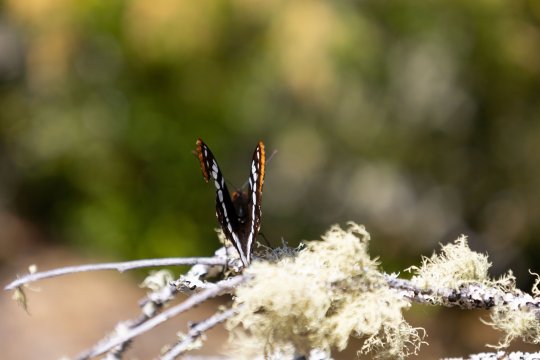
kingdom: Animalia
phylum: Arthropoda
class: Insecta
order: Lepidoptera
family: Nymphalidae
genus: Limenitis
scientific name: Limenitis lorquini
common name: Lorquin's Admiral
